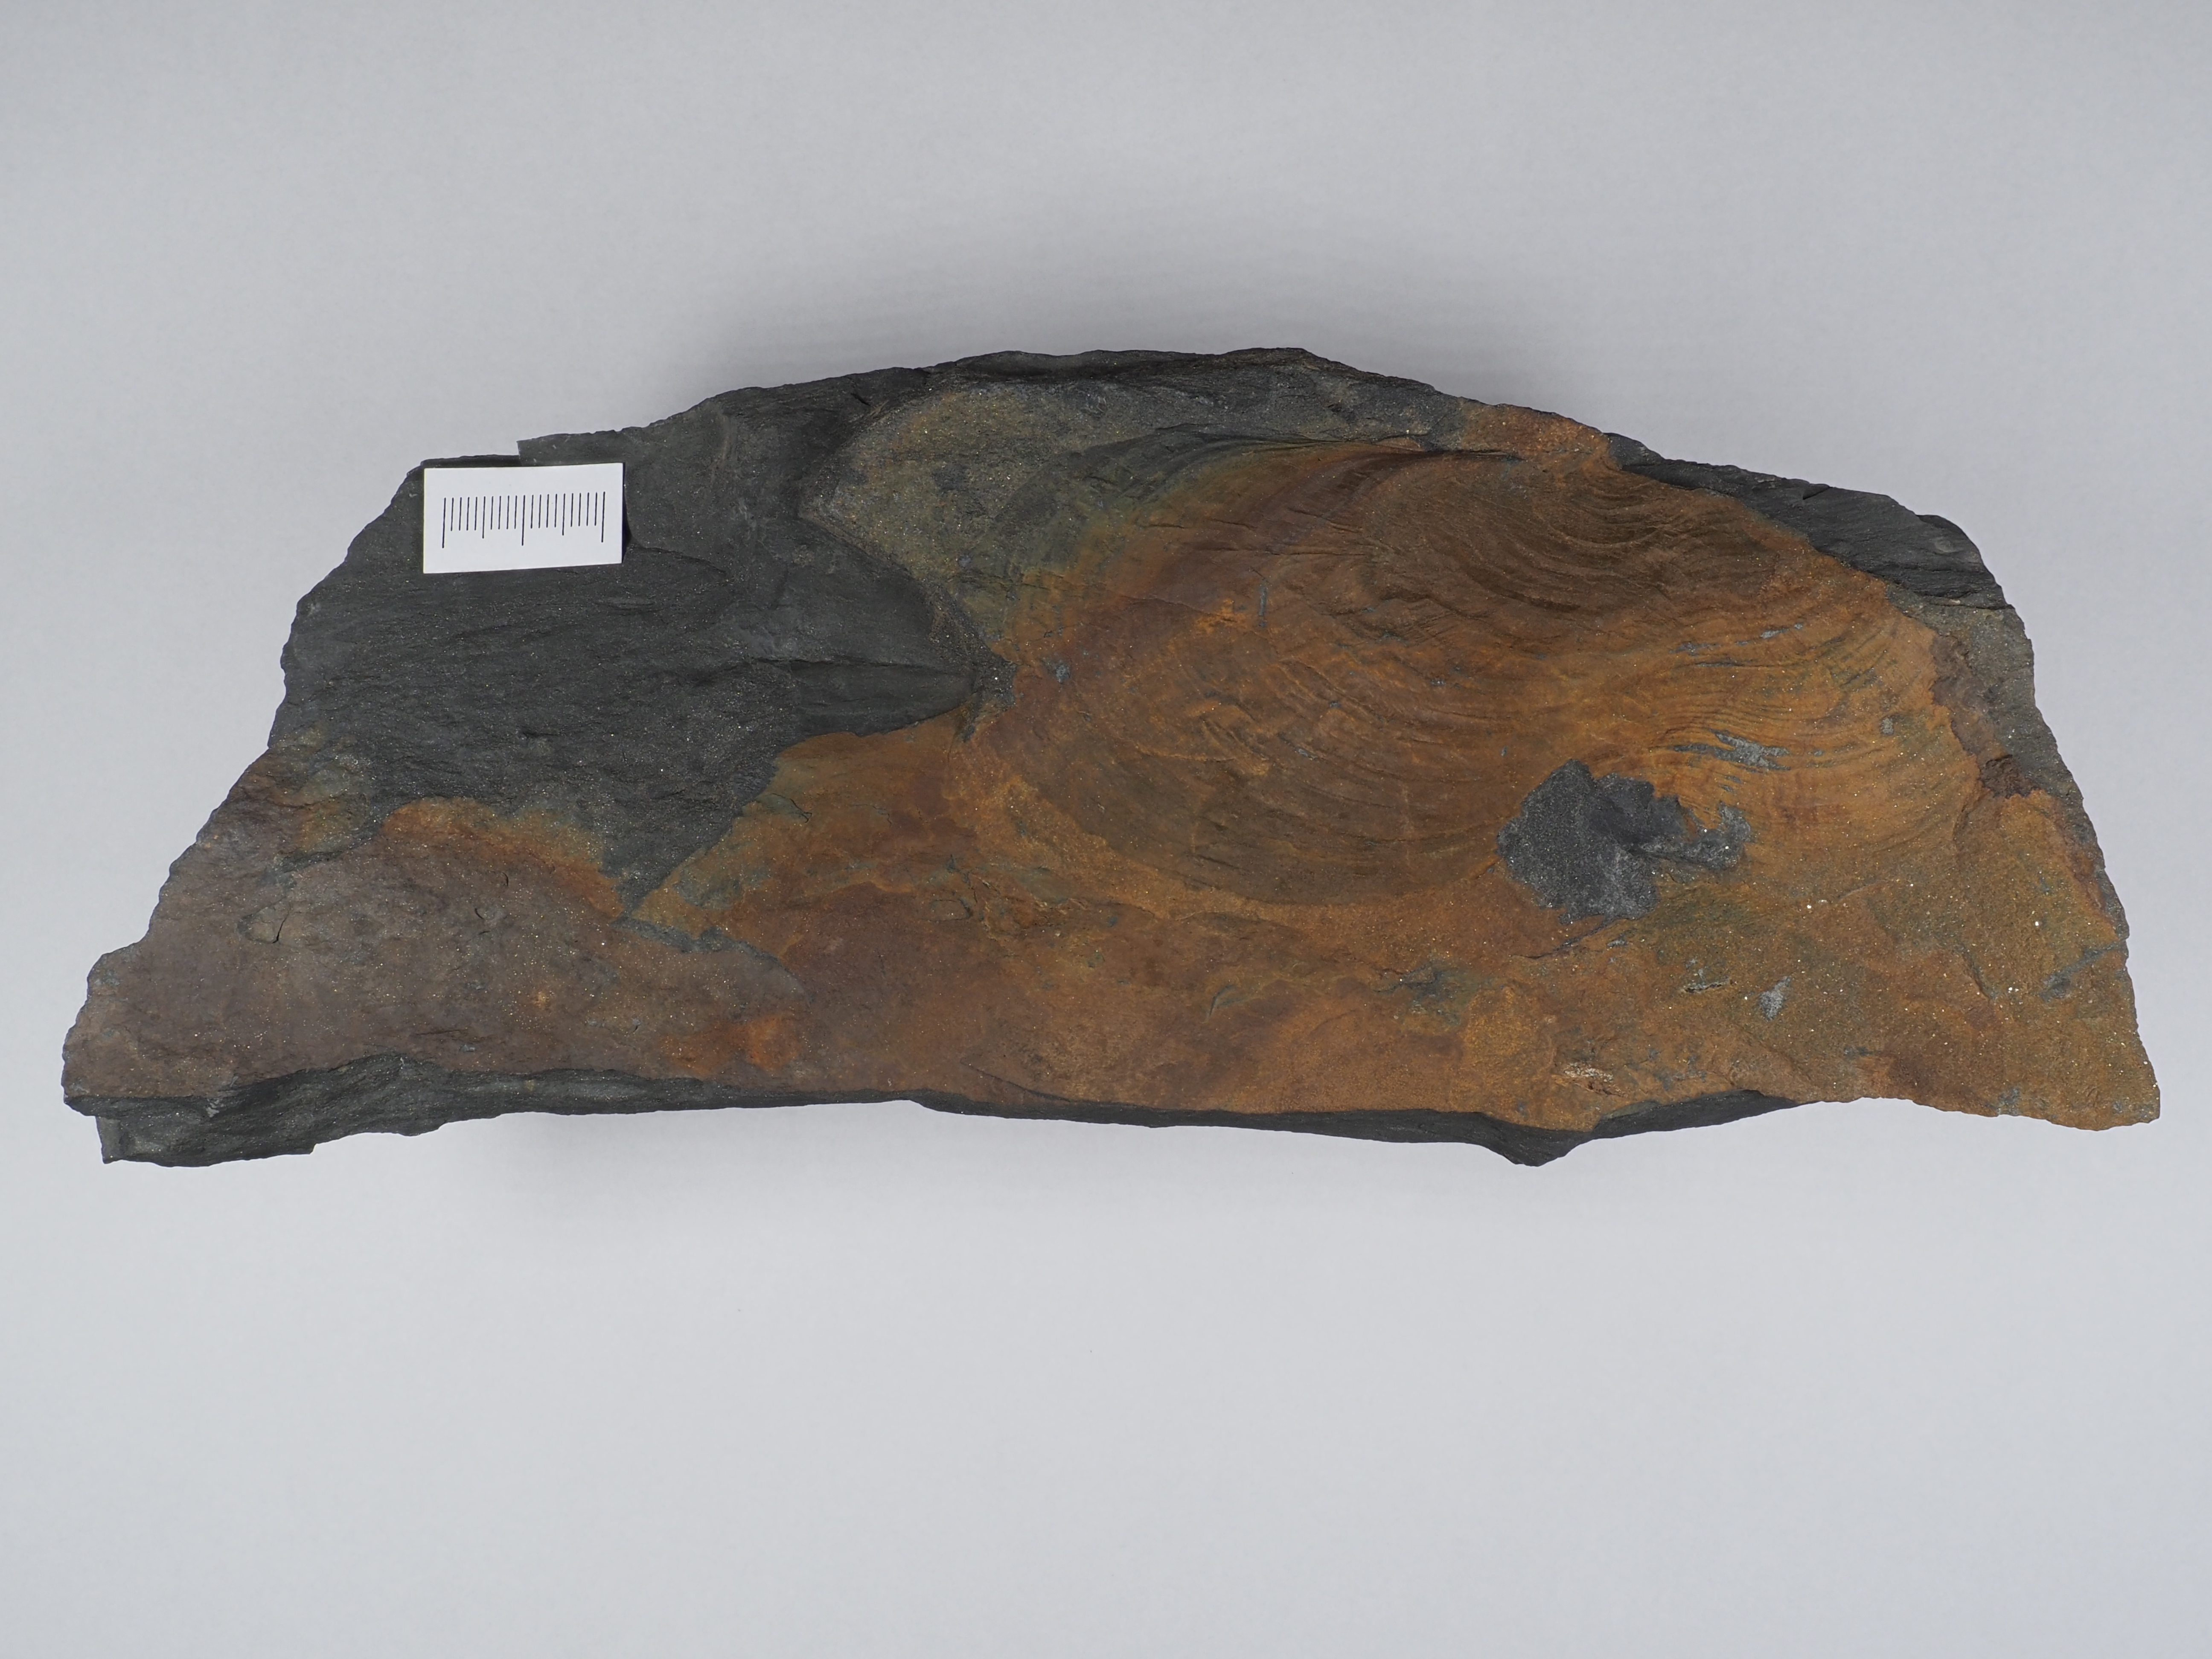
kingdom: Animalia
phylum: Mollusca
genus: Klinoptera
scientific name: Klinoptera
